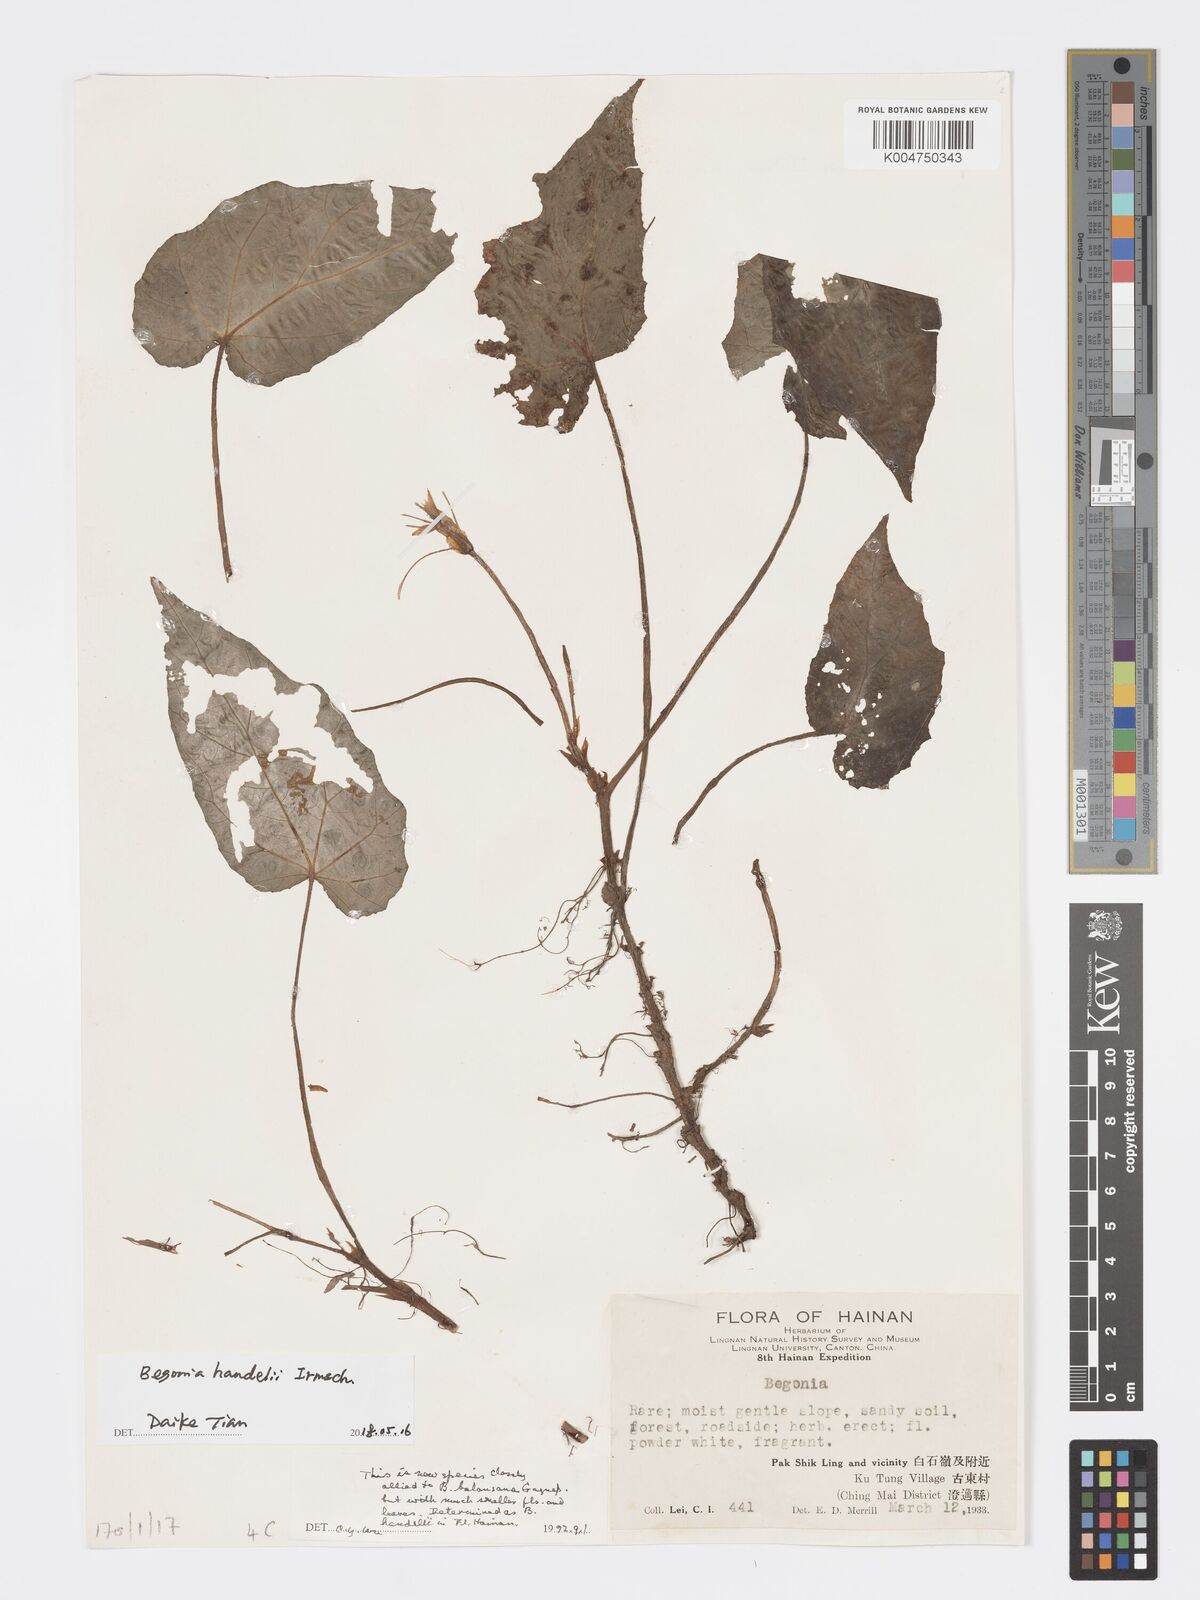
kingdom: Plantae
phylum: Tracheophyta
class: Magnoliopsida
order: Cucurbitales
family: Begoniaceae
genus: Begonia
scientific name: Begonia handelii
